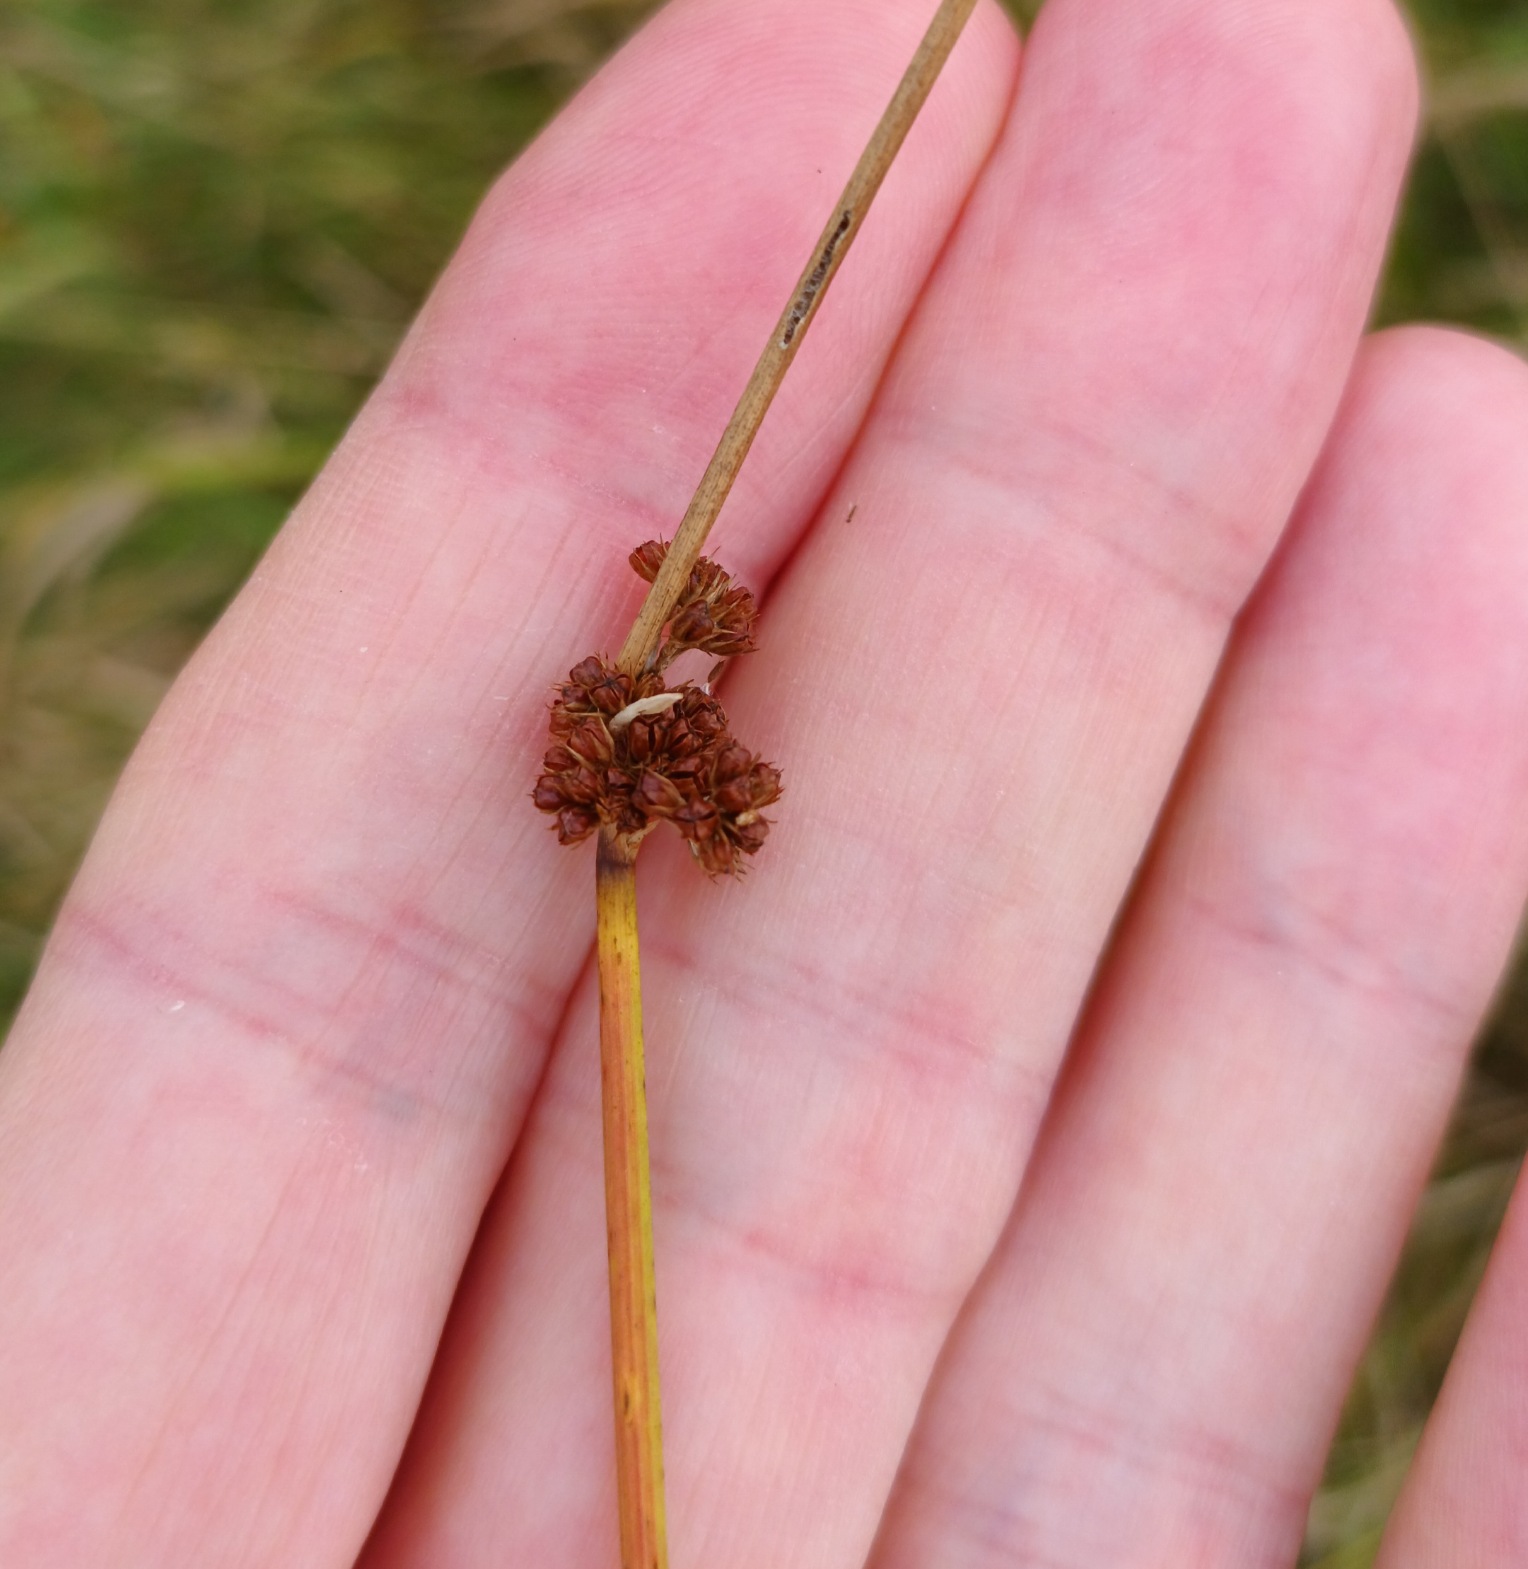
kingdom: Plantae
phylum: Tracheophyta
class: Liliopsida
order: Poales
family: Juncaceae
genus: Juncus
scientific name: Juncus conglomeratus
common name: Knop-siv
